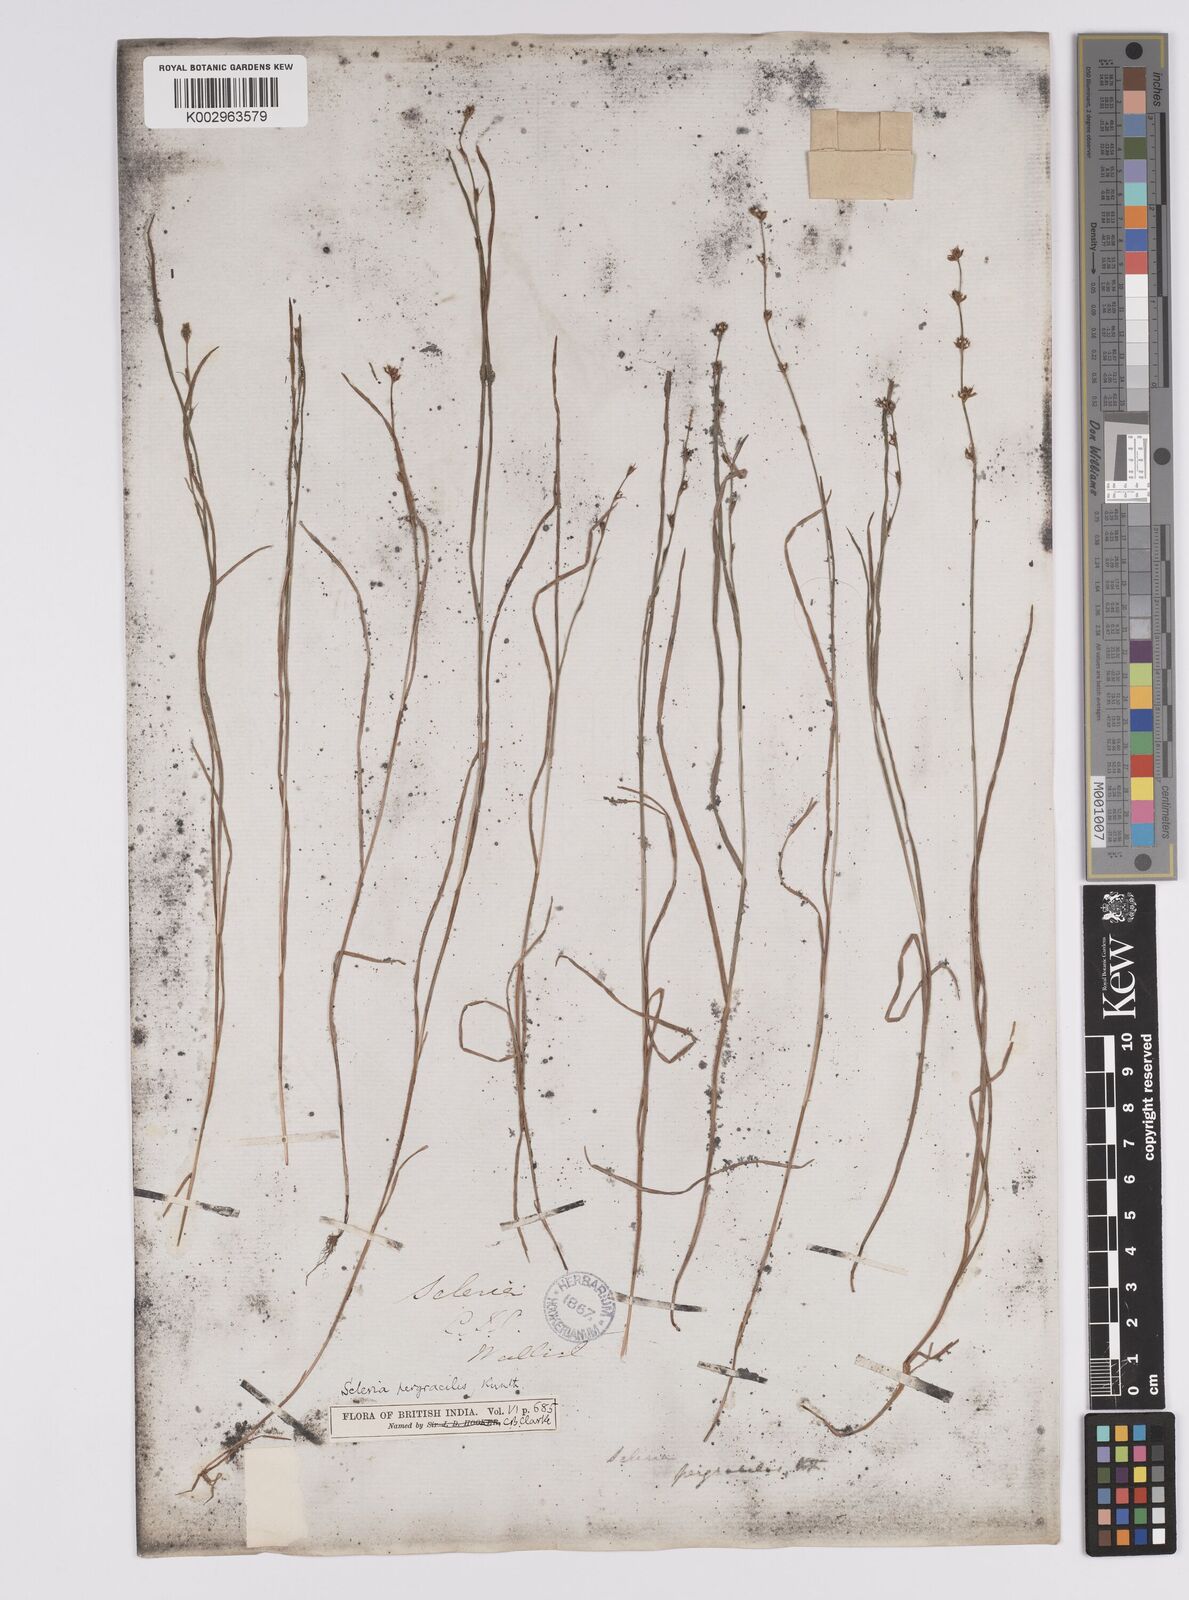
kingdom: Plantae
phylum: Tracheophyta
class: Liliopsida
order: Poales
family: Cyperaceae
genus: Scleria
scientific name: Scleria pergracilis
